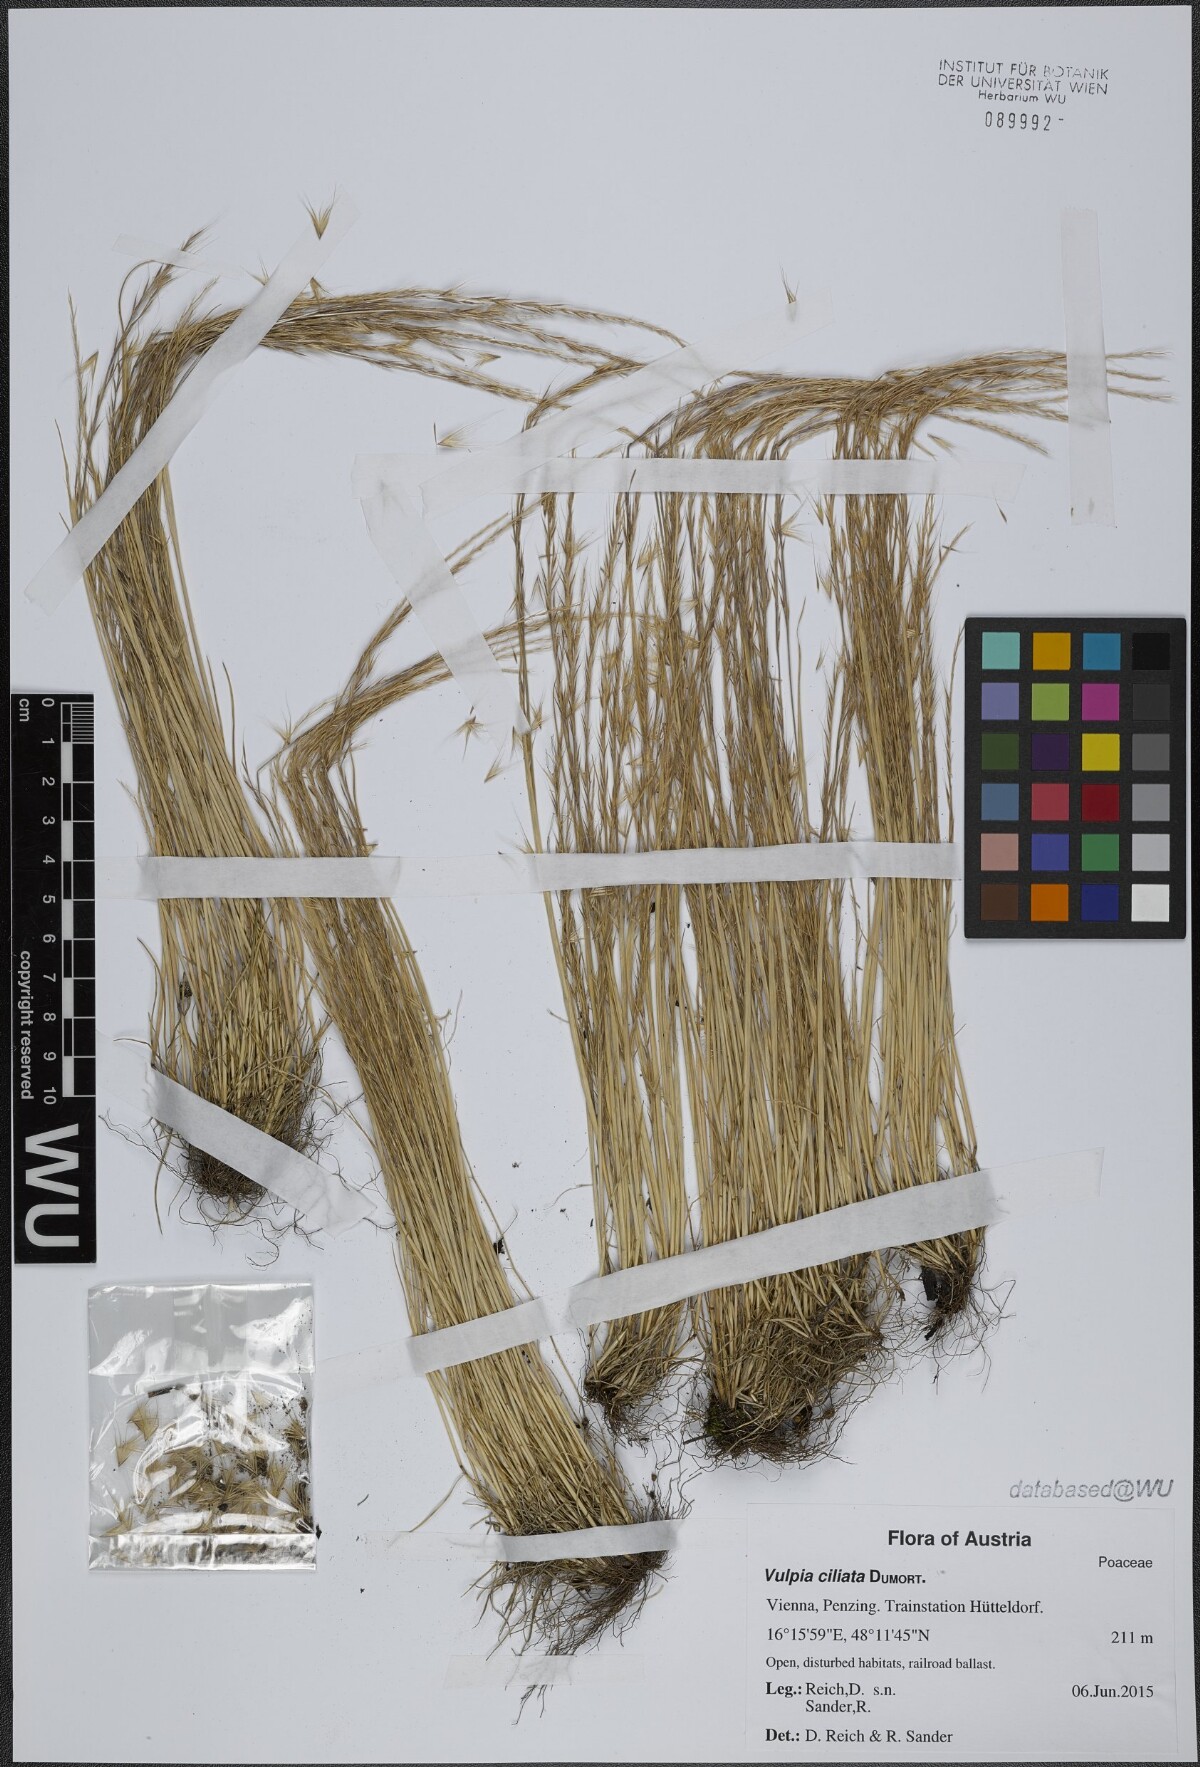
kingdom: Plantae
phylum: Tracheophyta
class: Liliopsida
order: Poales
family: Poaceae
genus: Festuca
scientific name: Festuca ambigua
